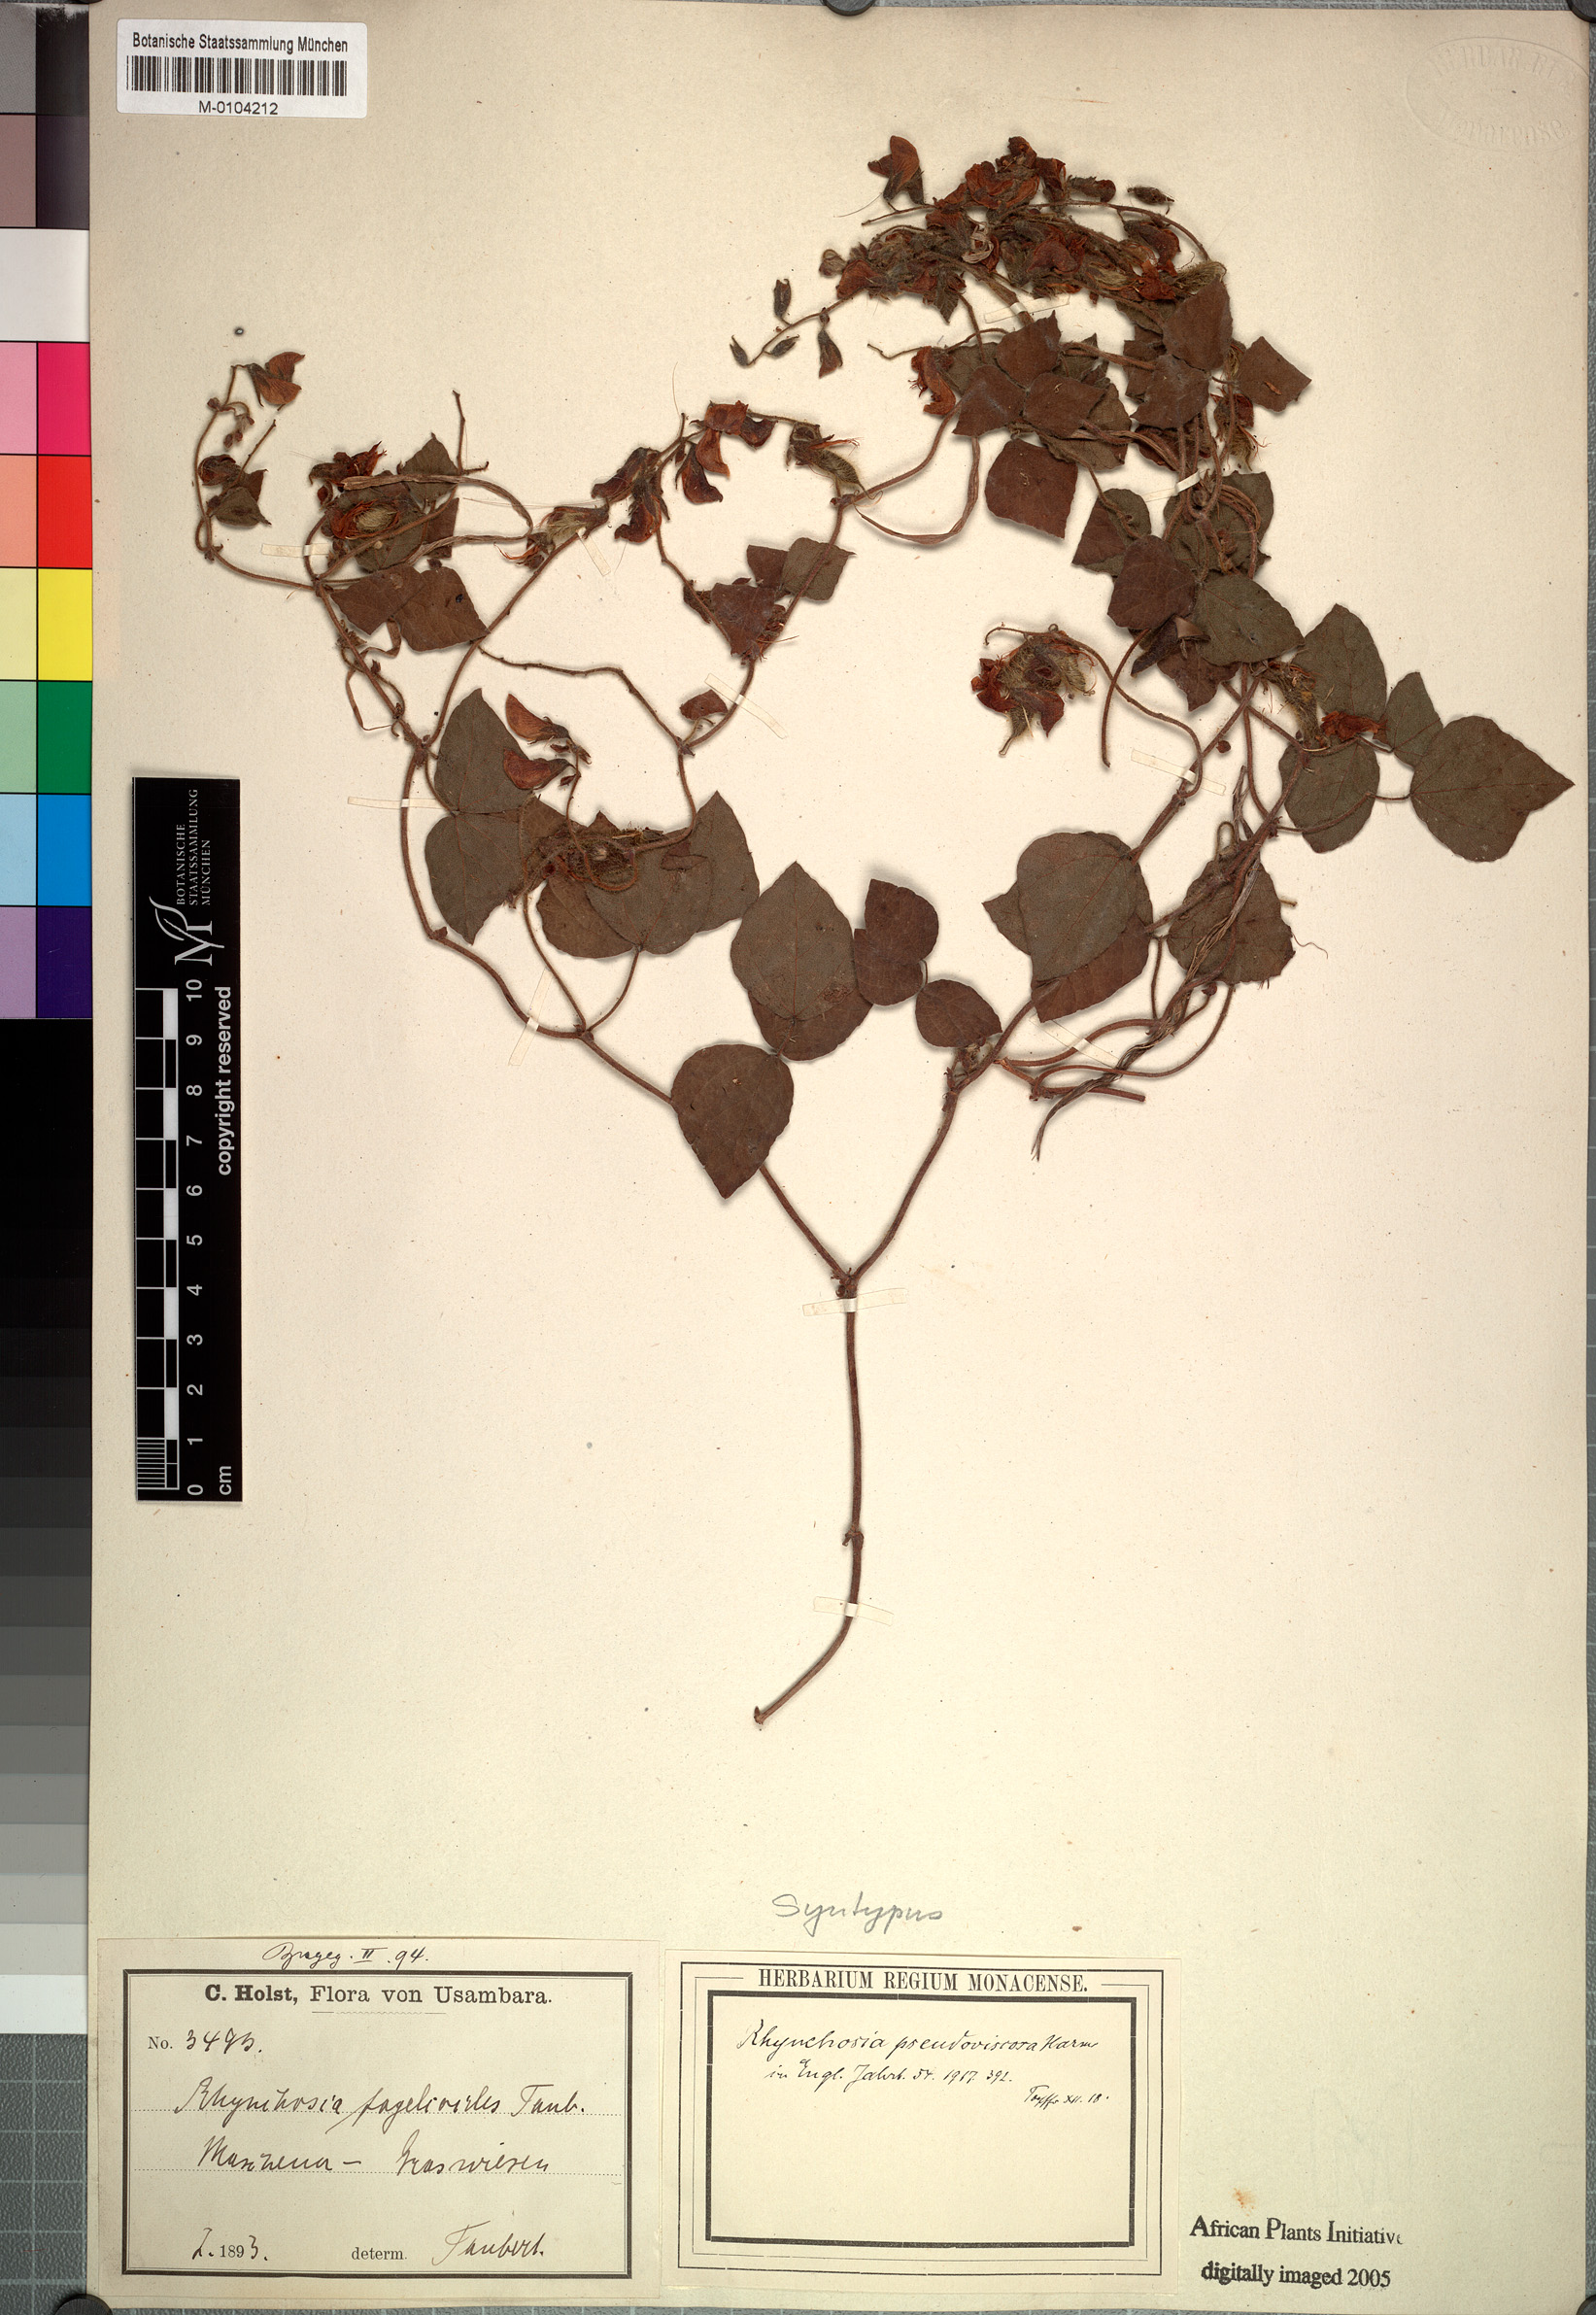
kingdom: Plantae
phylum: Tracheophyta
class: Magnoliopsida
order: Fabales
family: Fabaceae
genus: Rhynchosia
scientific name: Rhynchosia pseudoviscosa
